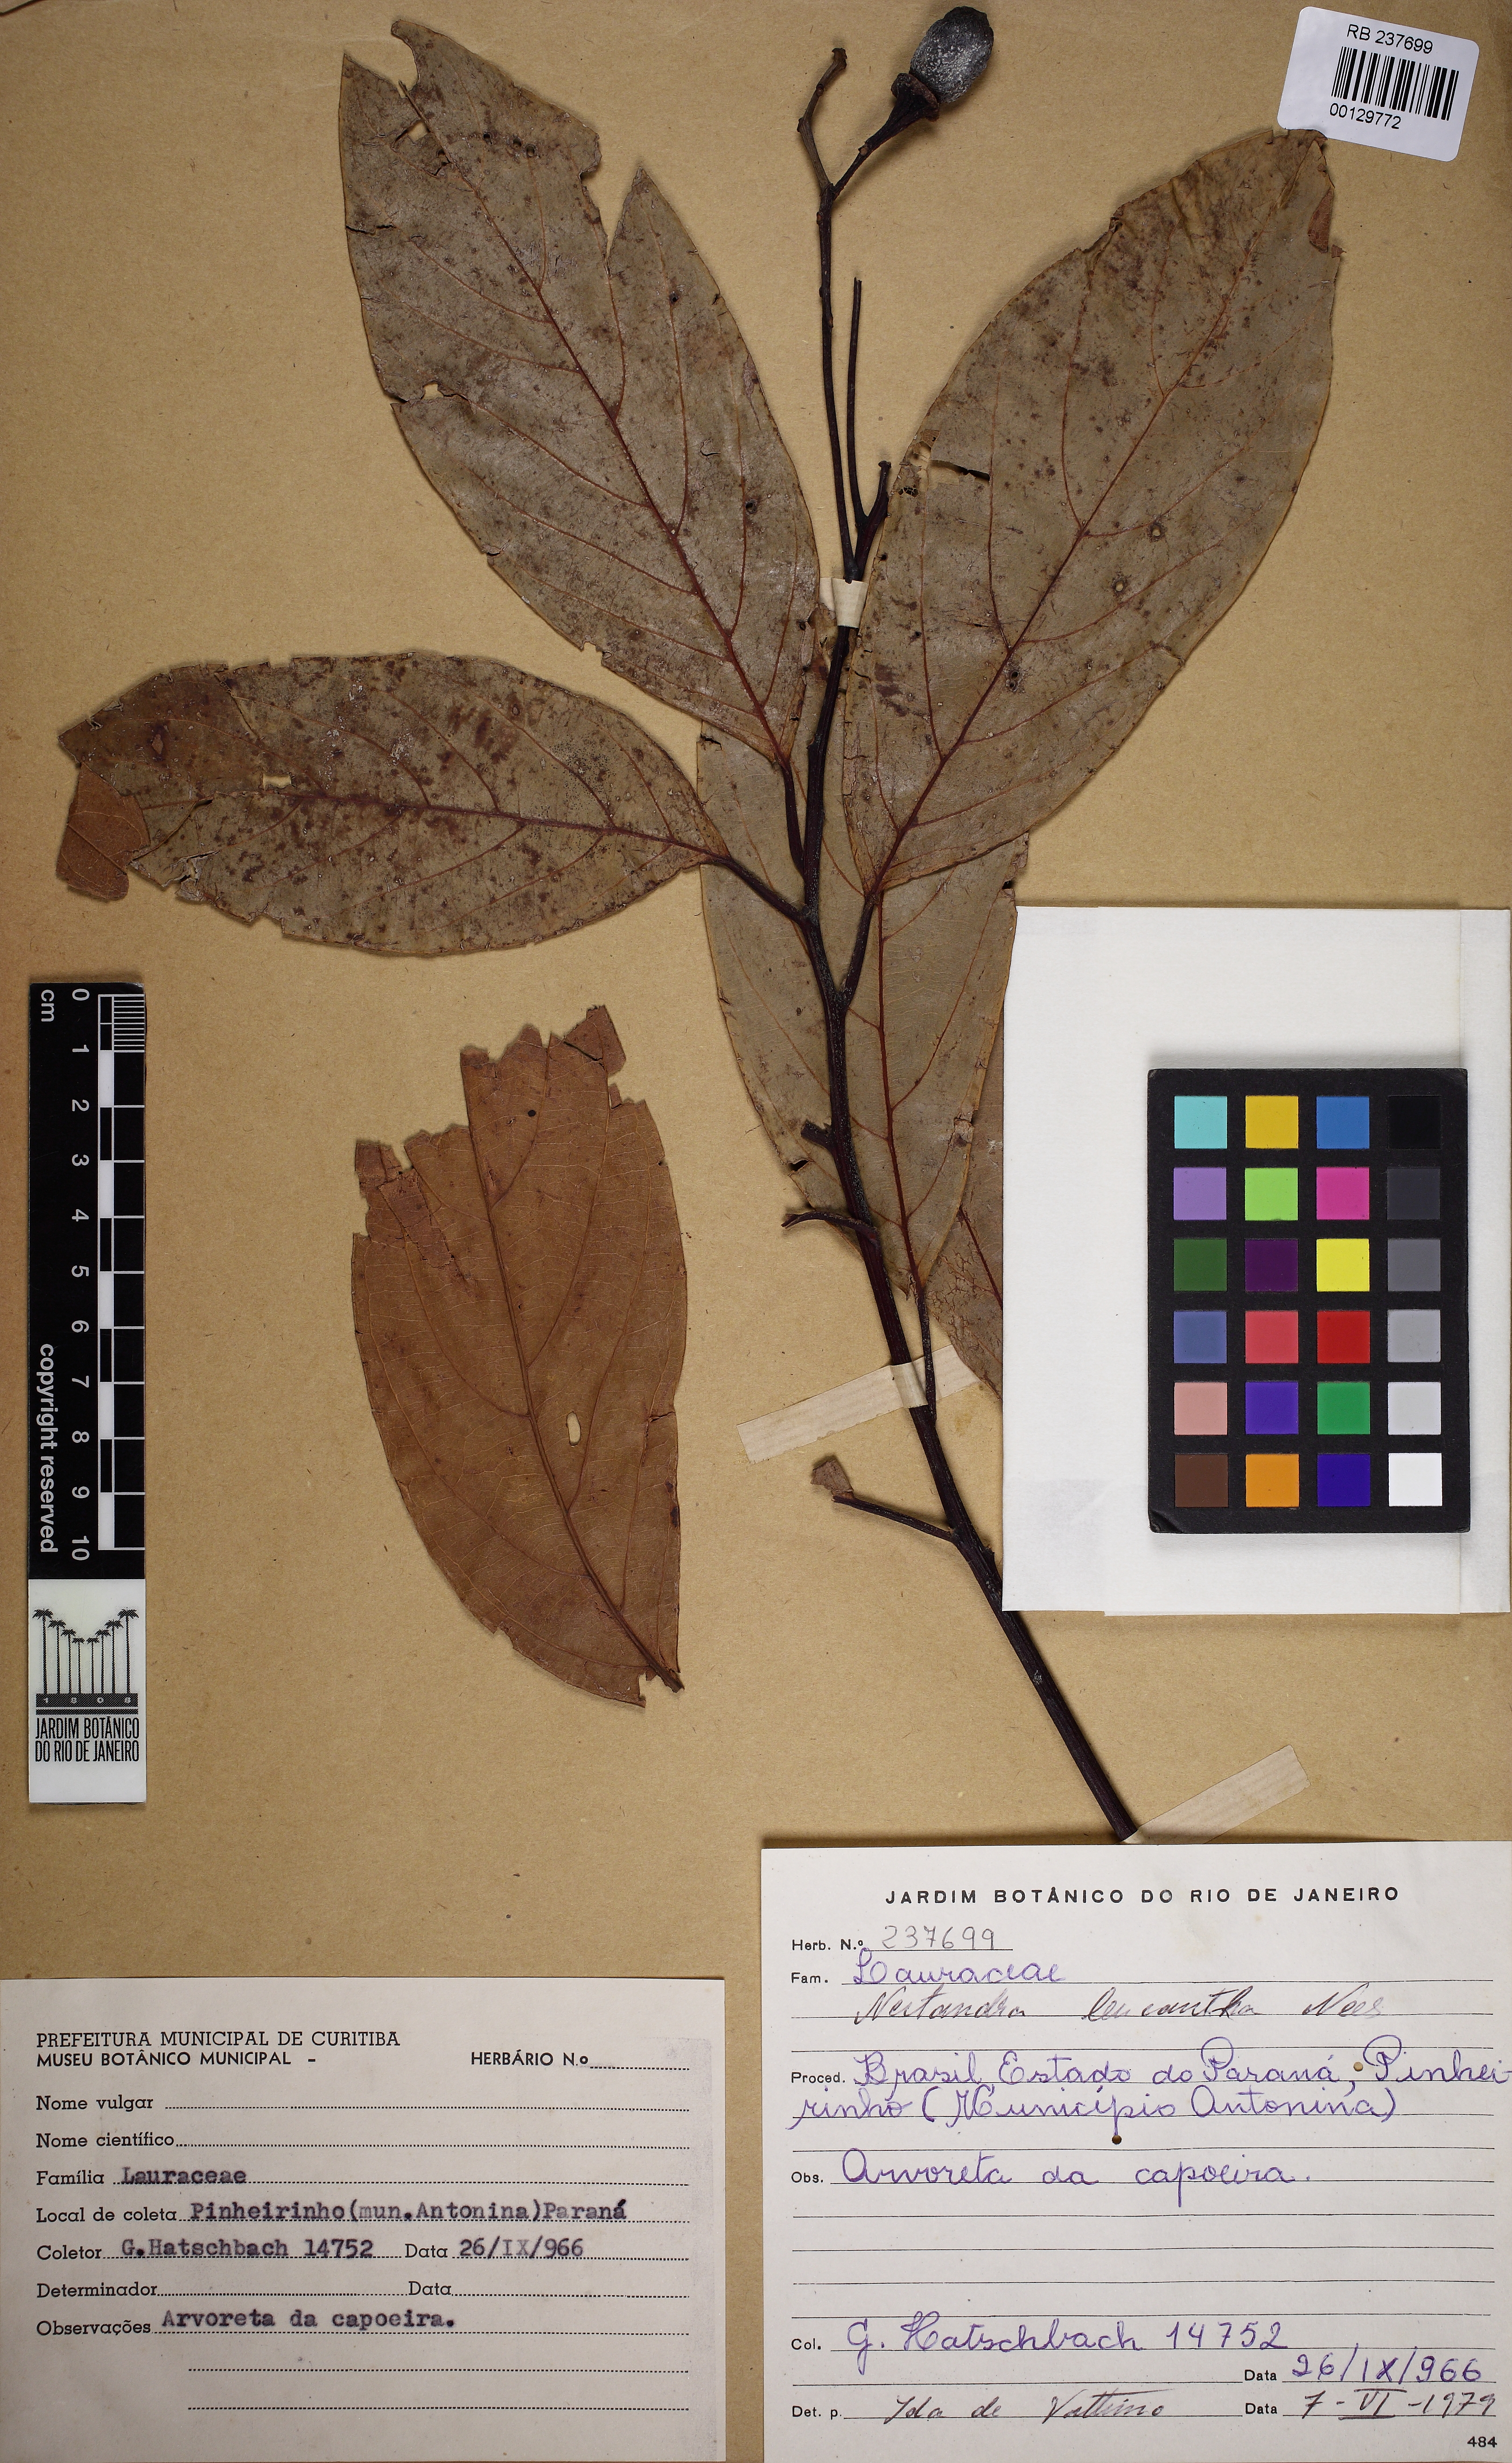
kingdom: Plantae
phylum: Tracheophyta
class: Magnoliopsida
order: Laurales
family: Lauraceae
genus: Nectandra
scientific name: Nectandra leucantha
